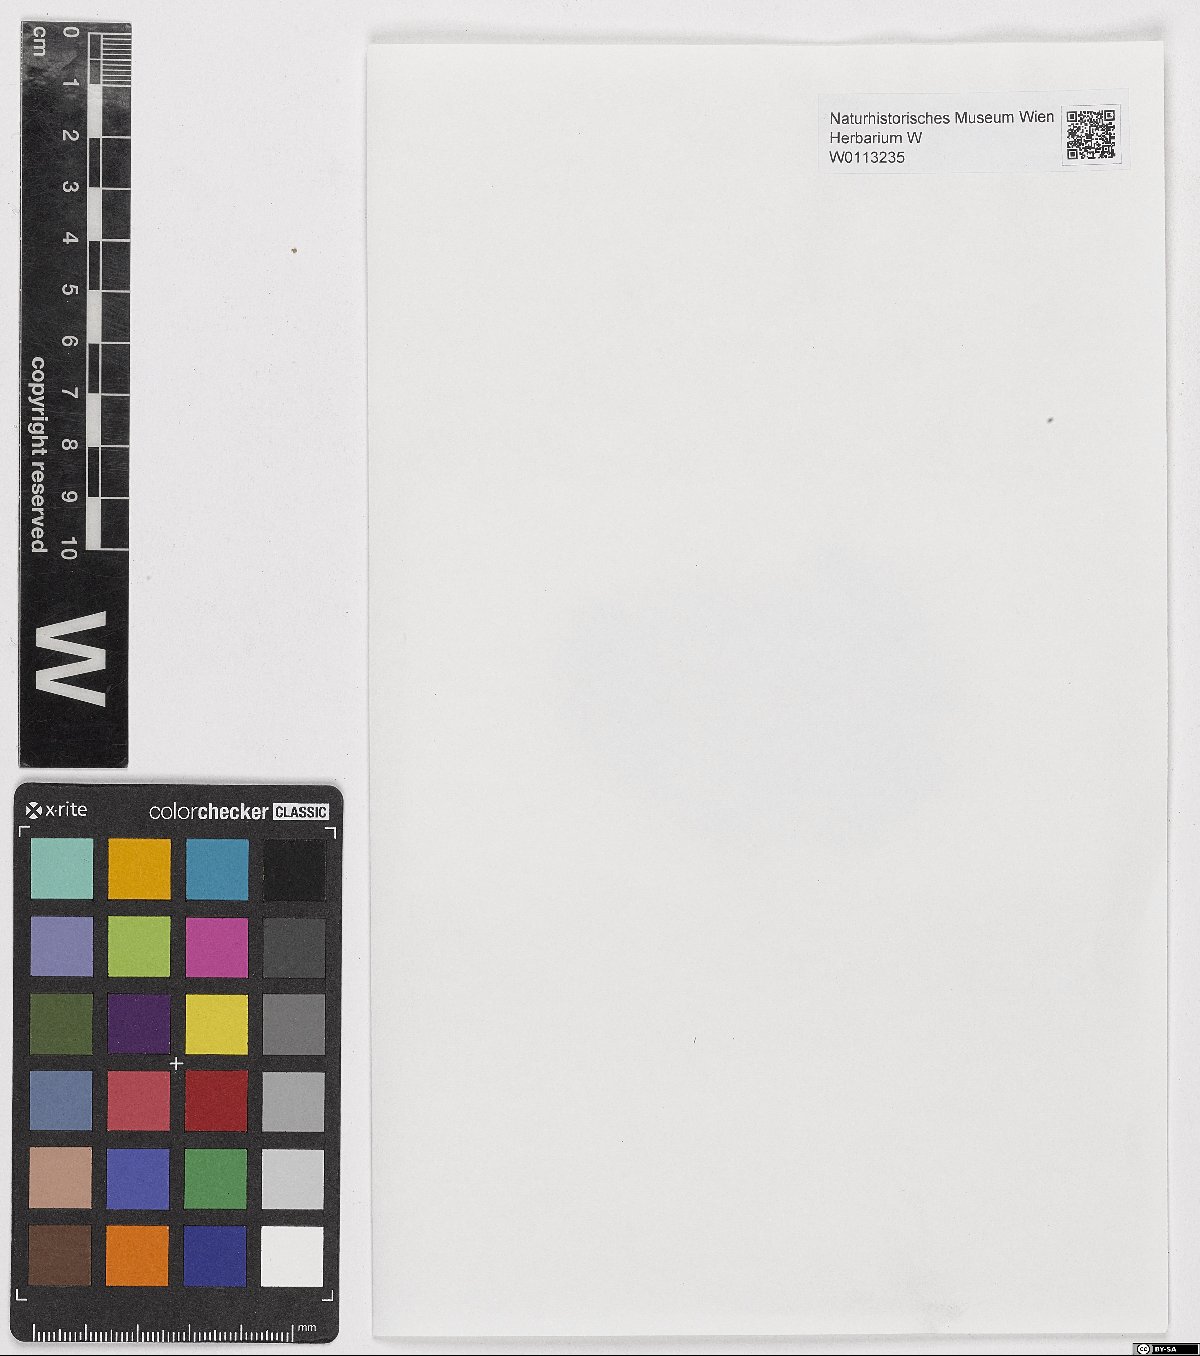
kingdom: Plantae
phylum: Bryophyta
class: Bryopsida
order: Pottiales
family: Pottiaceae
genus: Weissia
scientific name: Weissia squarrosa
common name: Spreading-leaved beardless-moss
